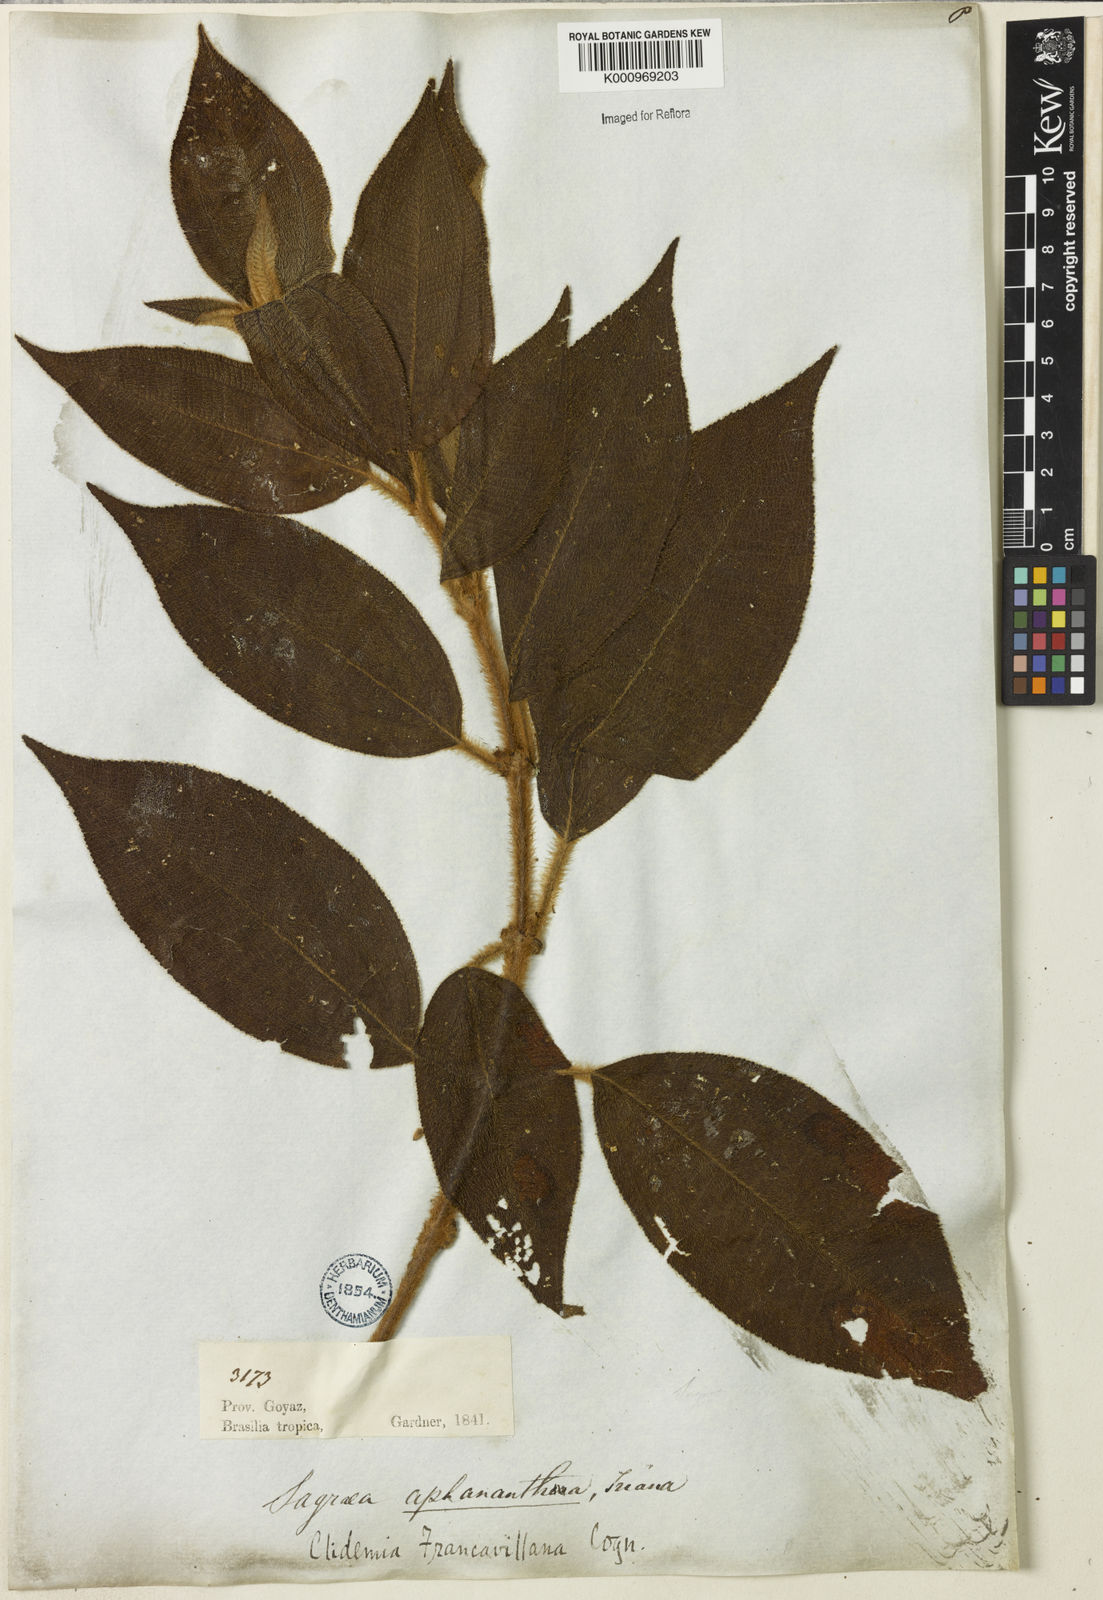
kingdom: Plantae
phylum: Tracheophyta
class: Magnoliopsida
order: Myrtales
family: Melastomataceae
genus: Miconia
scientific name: Miconia pseudodebilis
